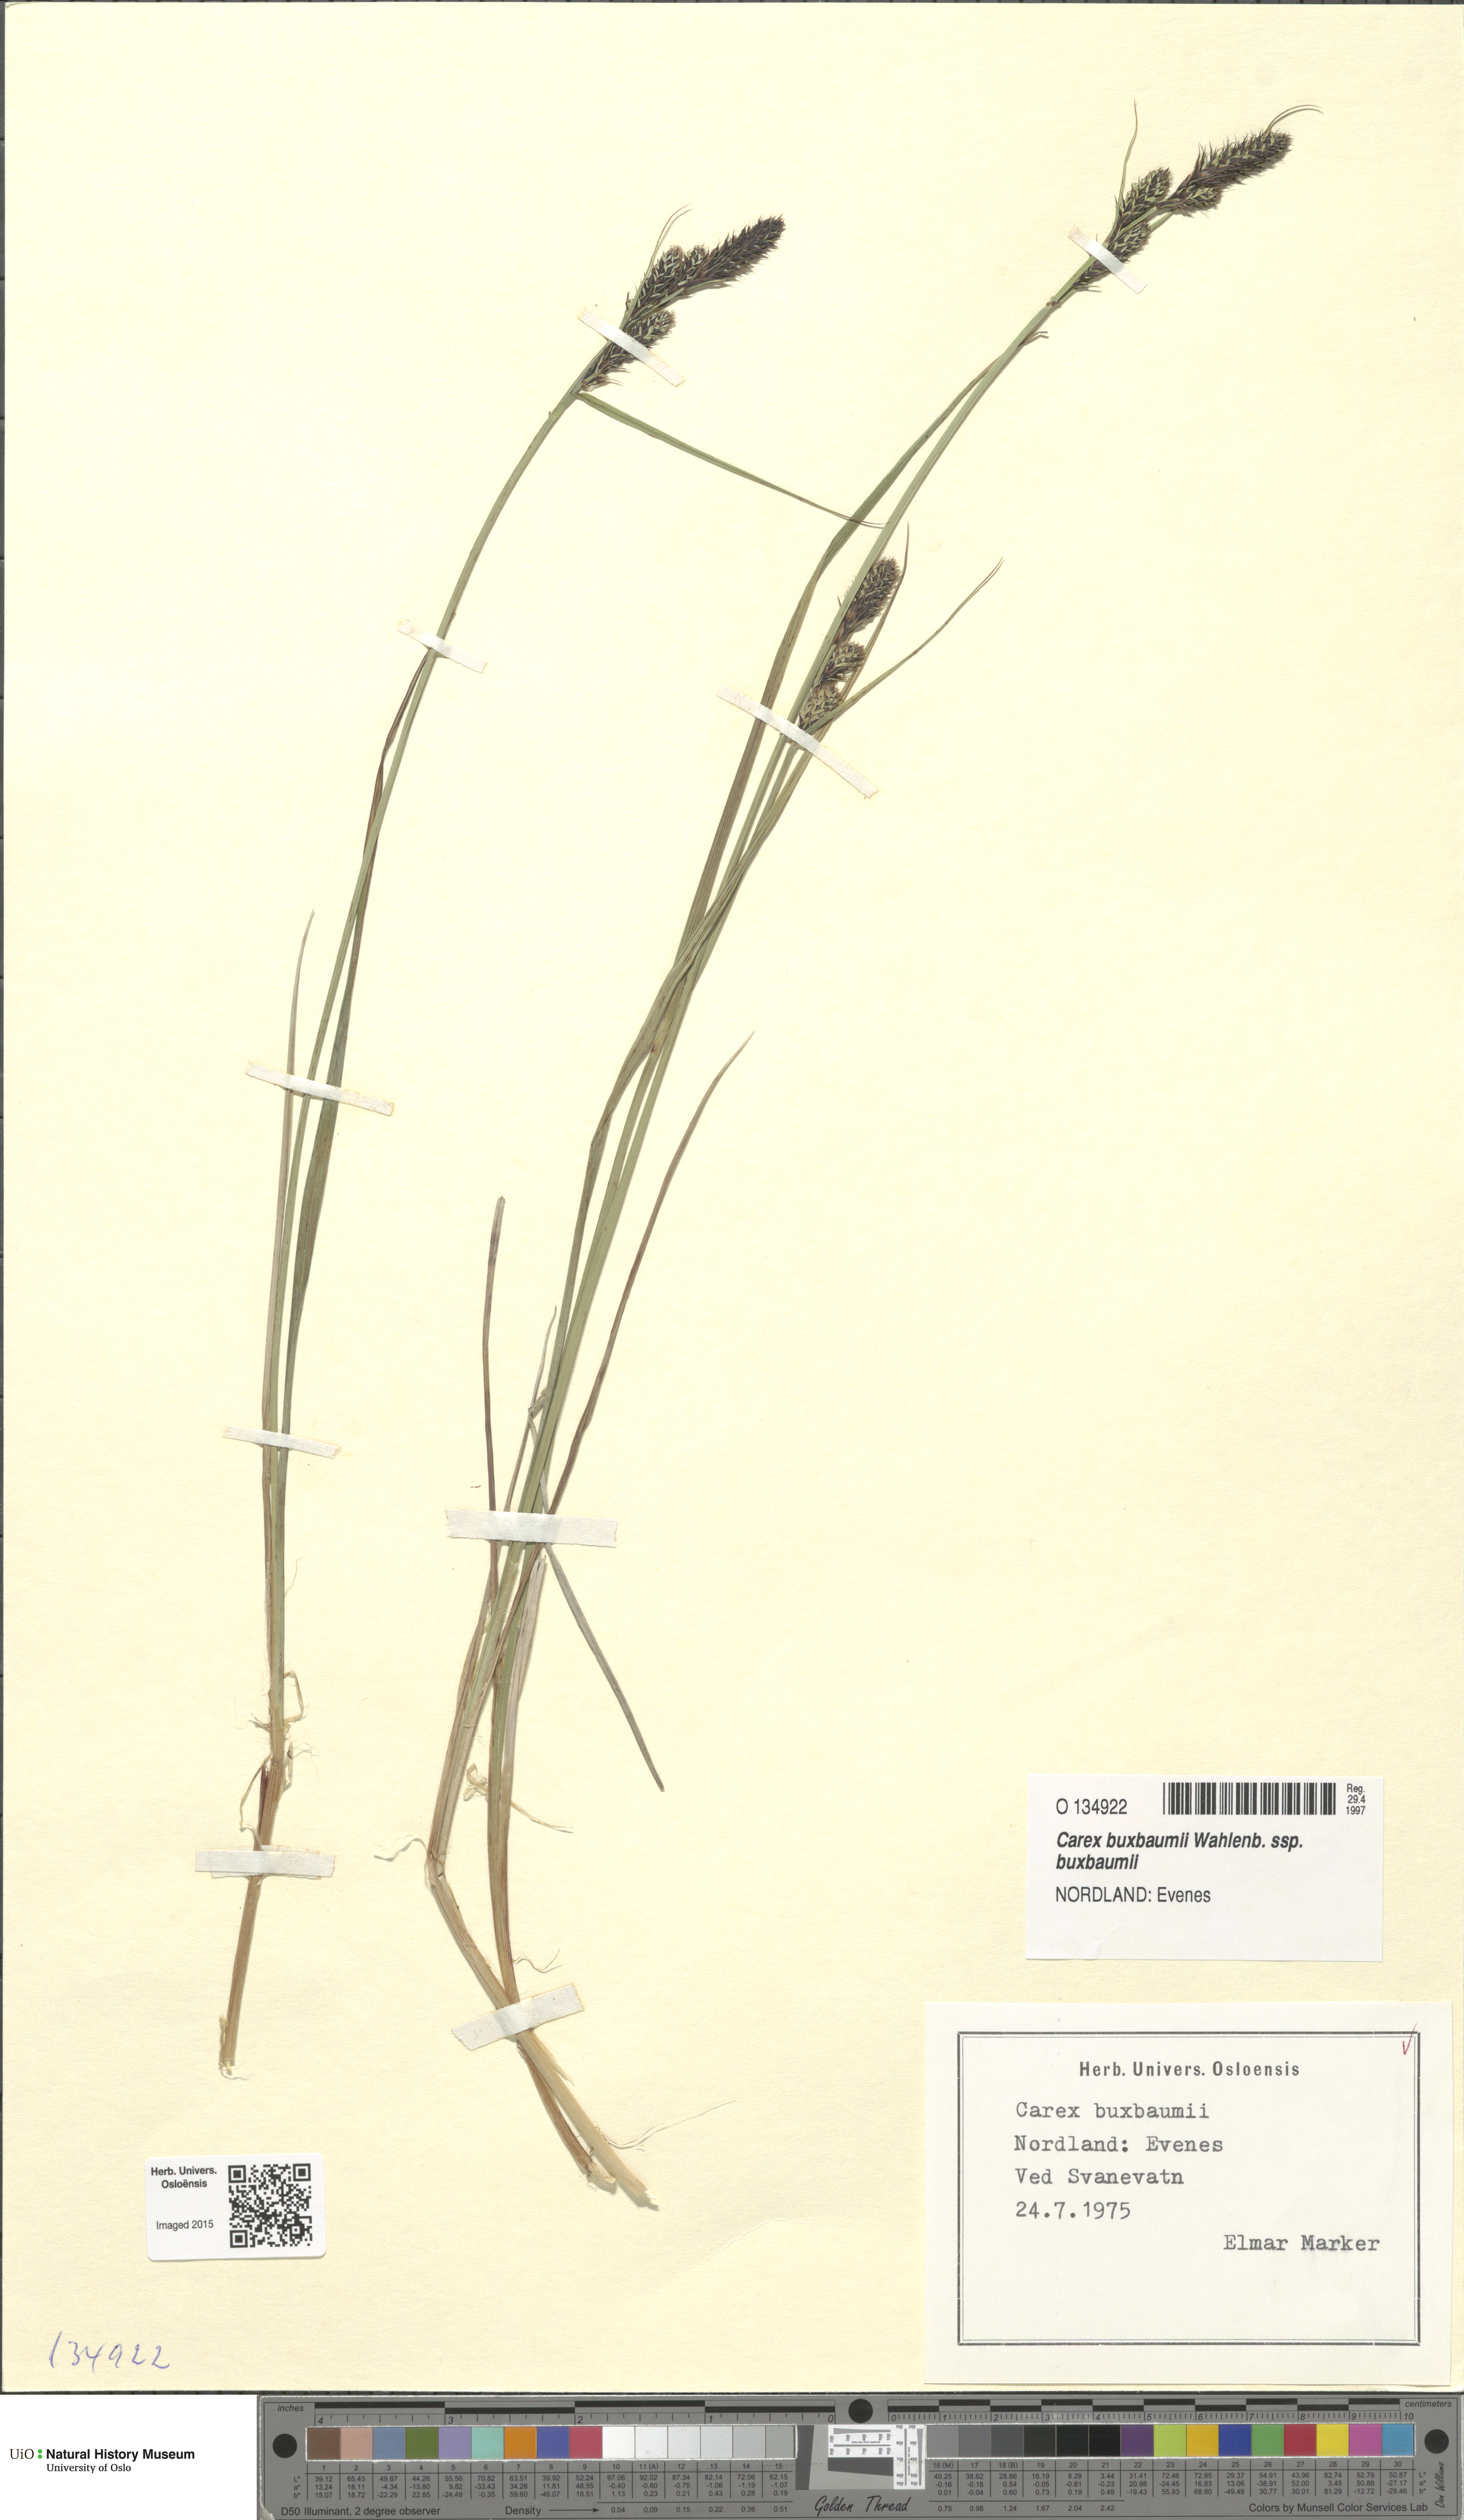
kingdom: Plantae
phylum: Tracheophyta
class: Liliopsida
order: Poales
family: Cyperaceae
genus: Carex
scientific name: Carex buxbaumii
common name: Club sedge
